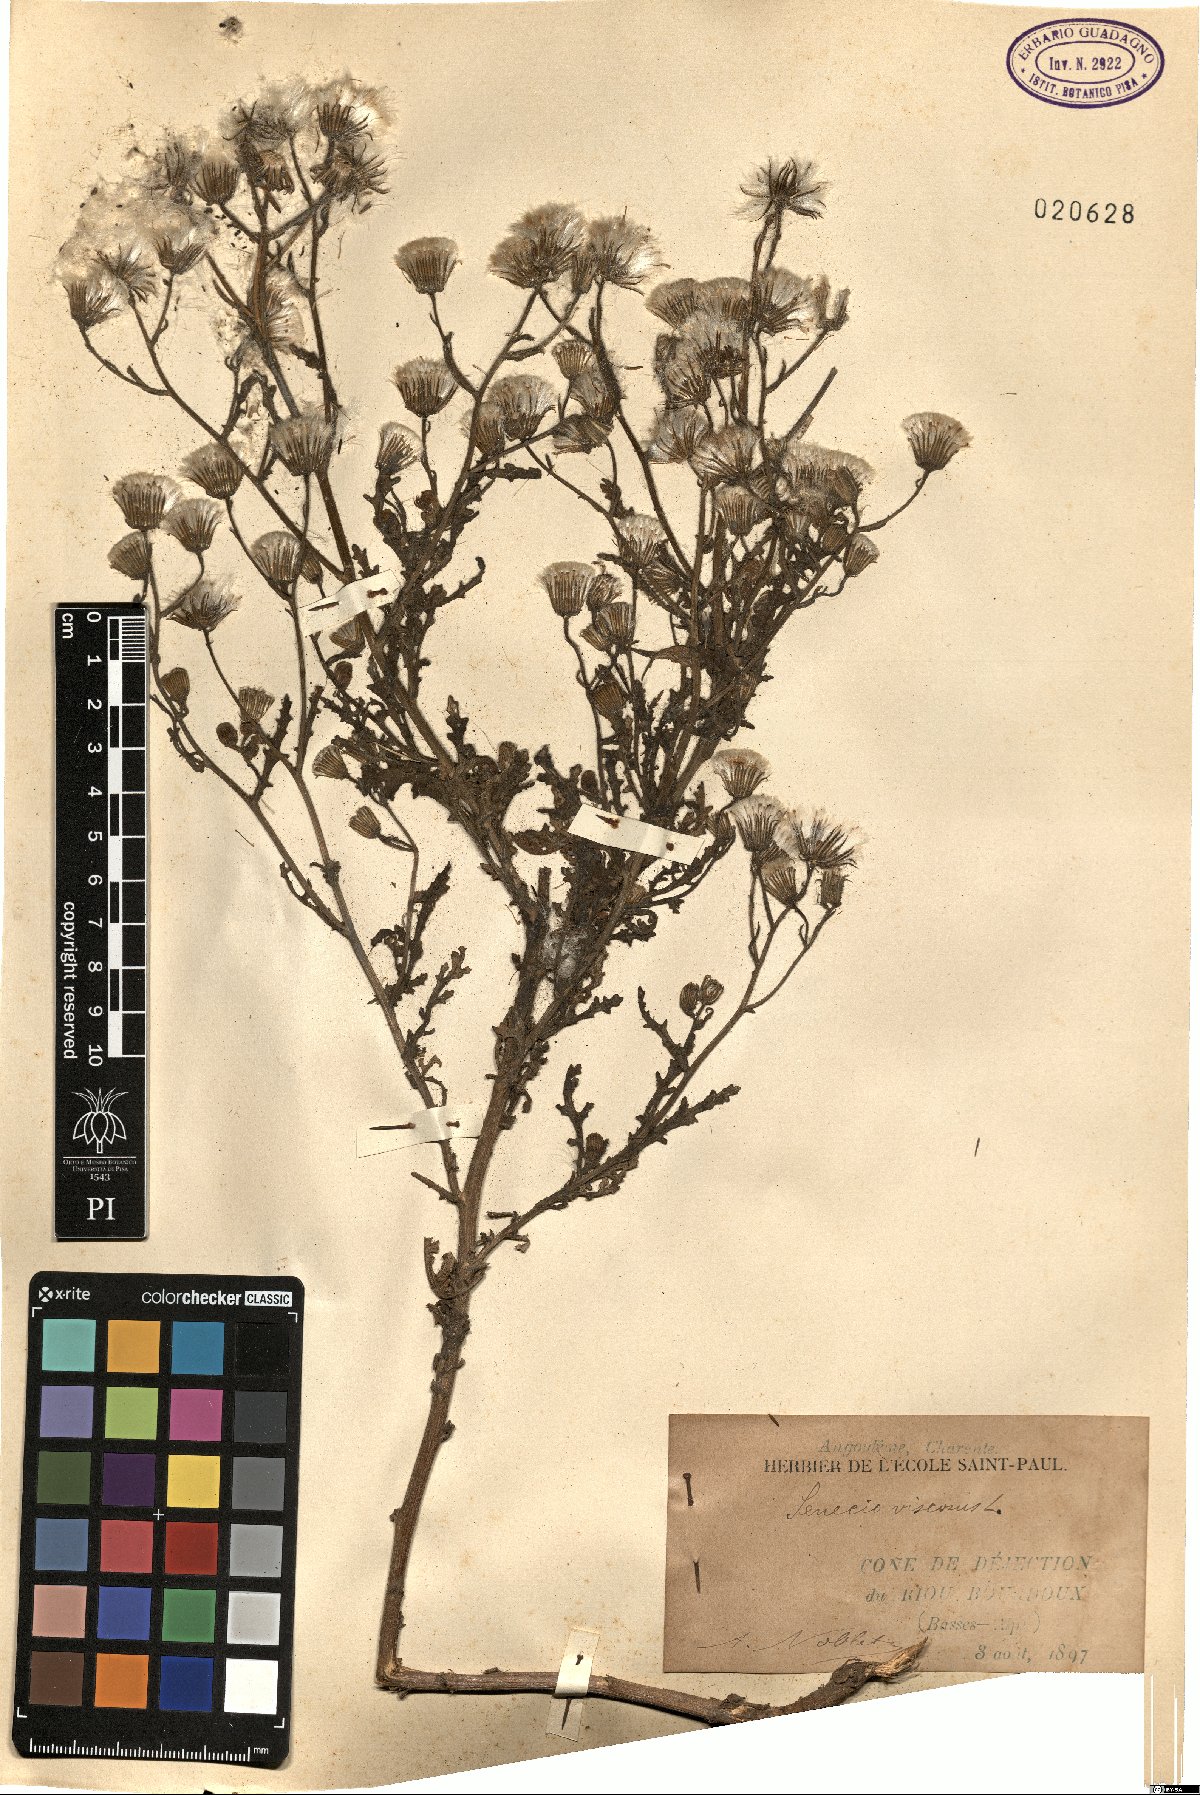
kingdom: Plantae
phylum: Tracheophyta
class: Magnoliopsida
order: Asterales
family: Asteraceae
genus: Senecio
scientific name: Senecio viscosus
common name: Sticky groundsel
